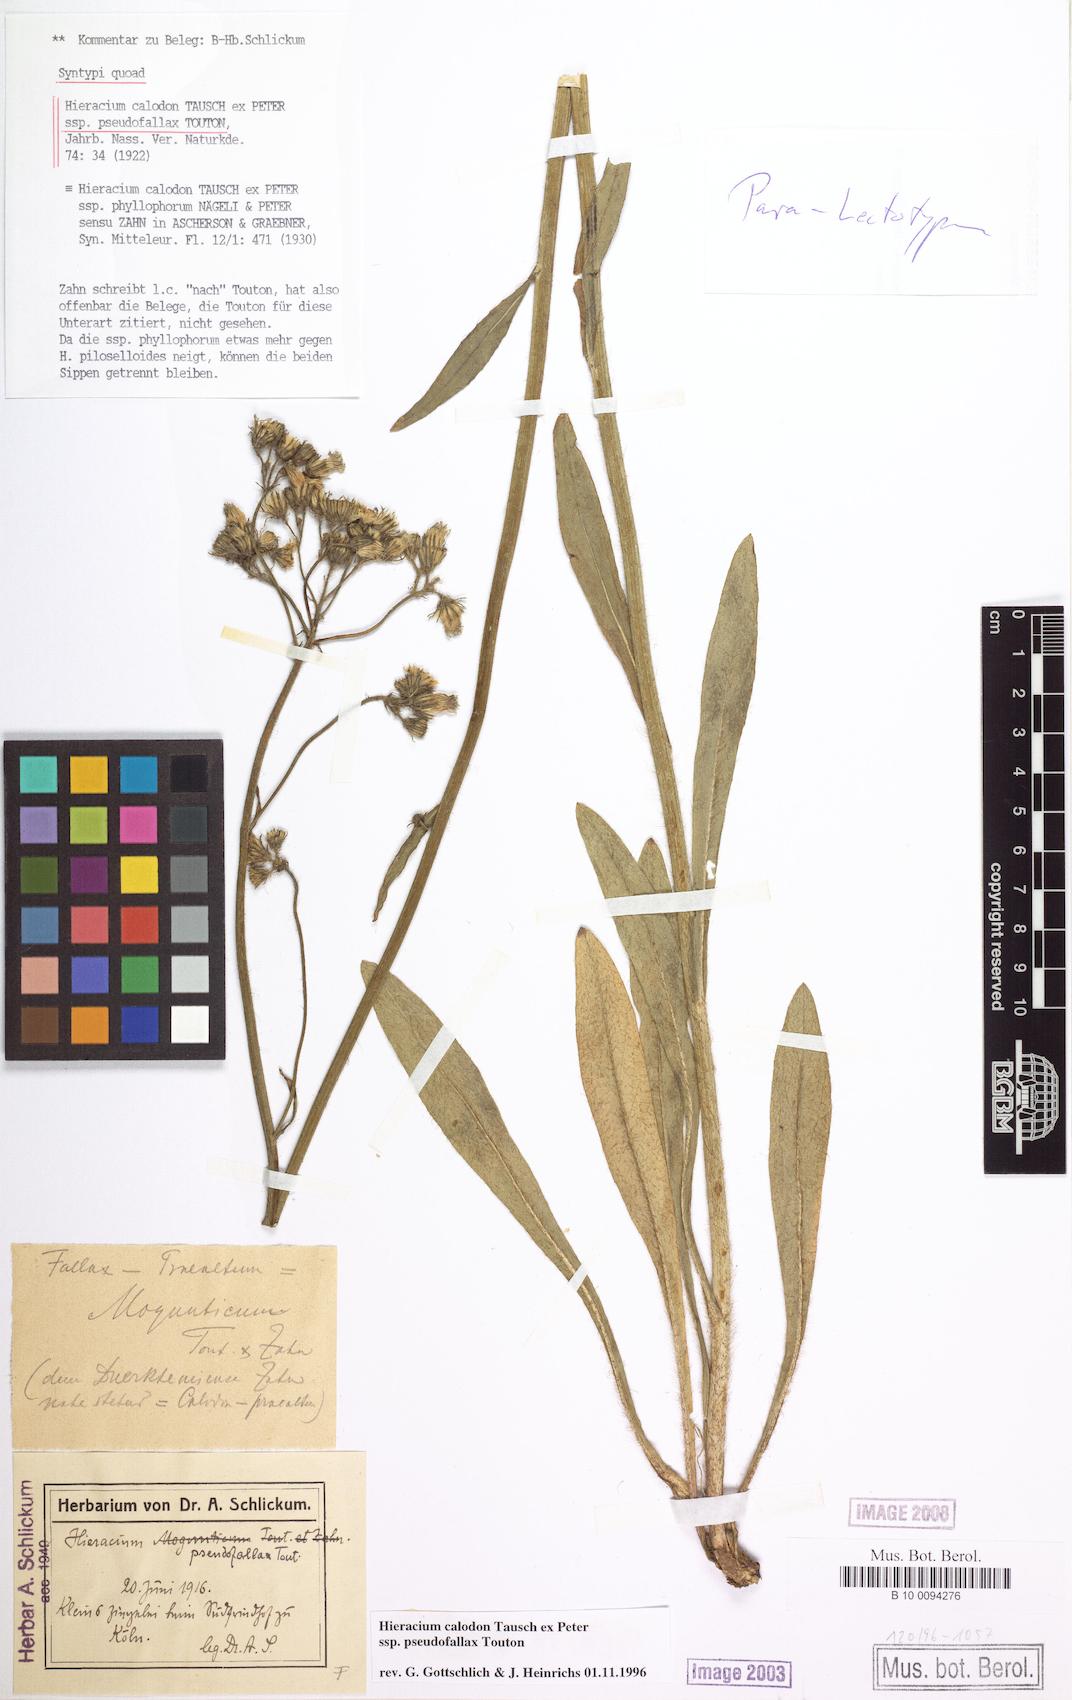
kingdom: Plantae
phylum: Tracheophyta
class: Magnoliopsida
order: Asterales
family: Asteraceae
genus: Pilosella
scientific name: Pilosella calodon
